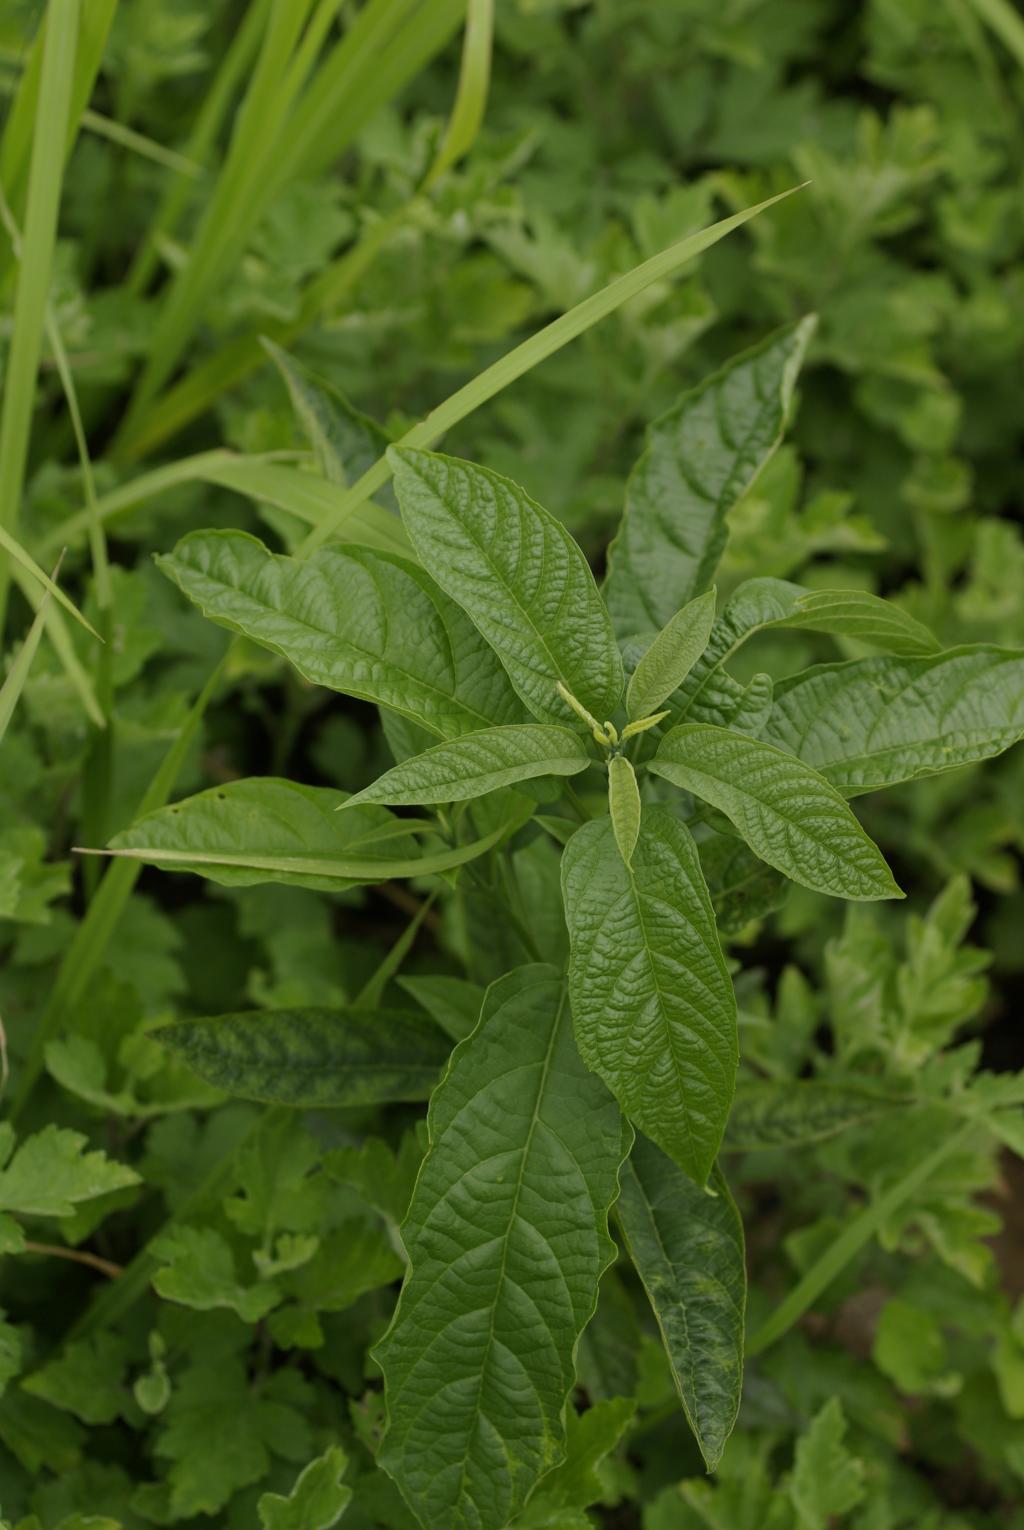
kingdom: Plantae
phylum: Tracheophyta
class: Magnoliopsida
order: Lamiales
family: Lamiaceae
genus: Clerodendrum
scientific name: Clerodendrum cyrtophyllum
